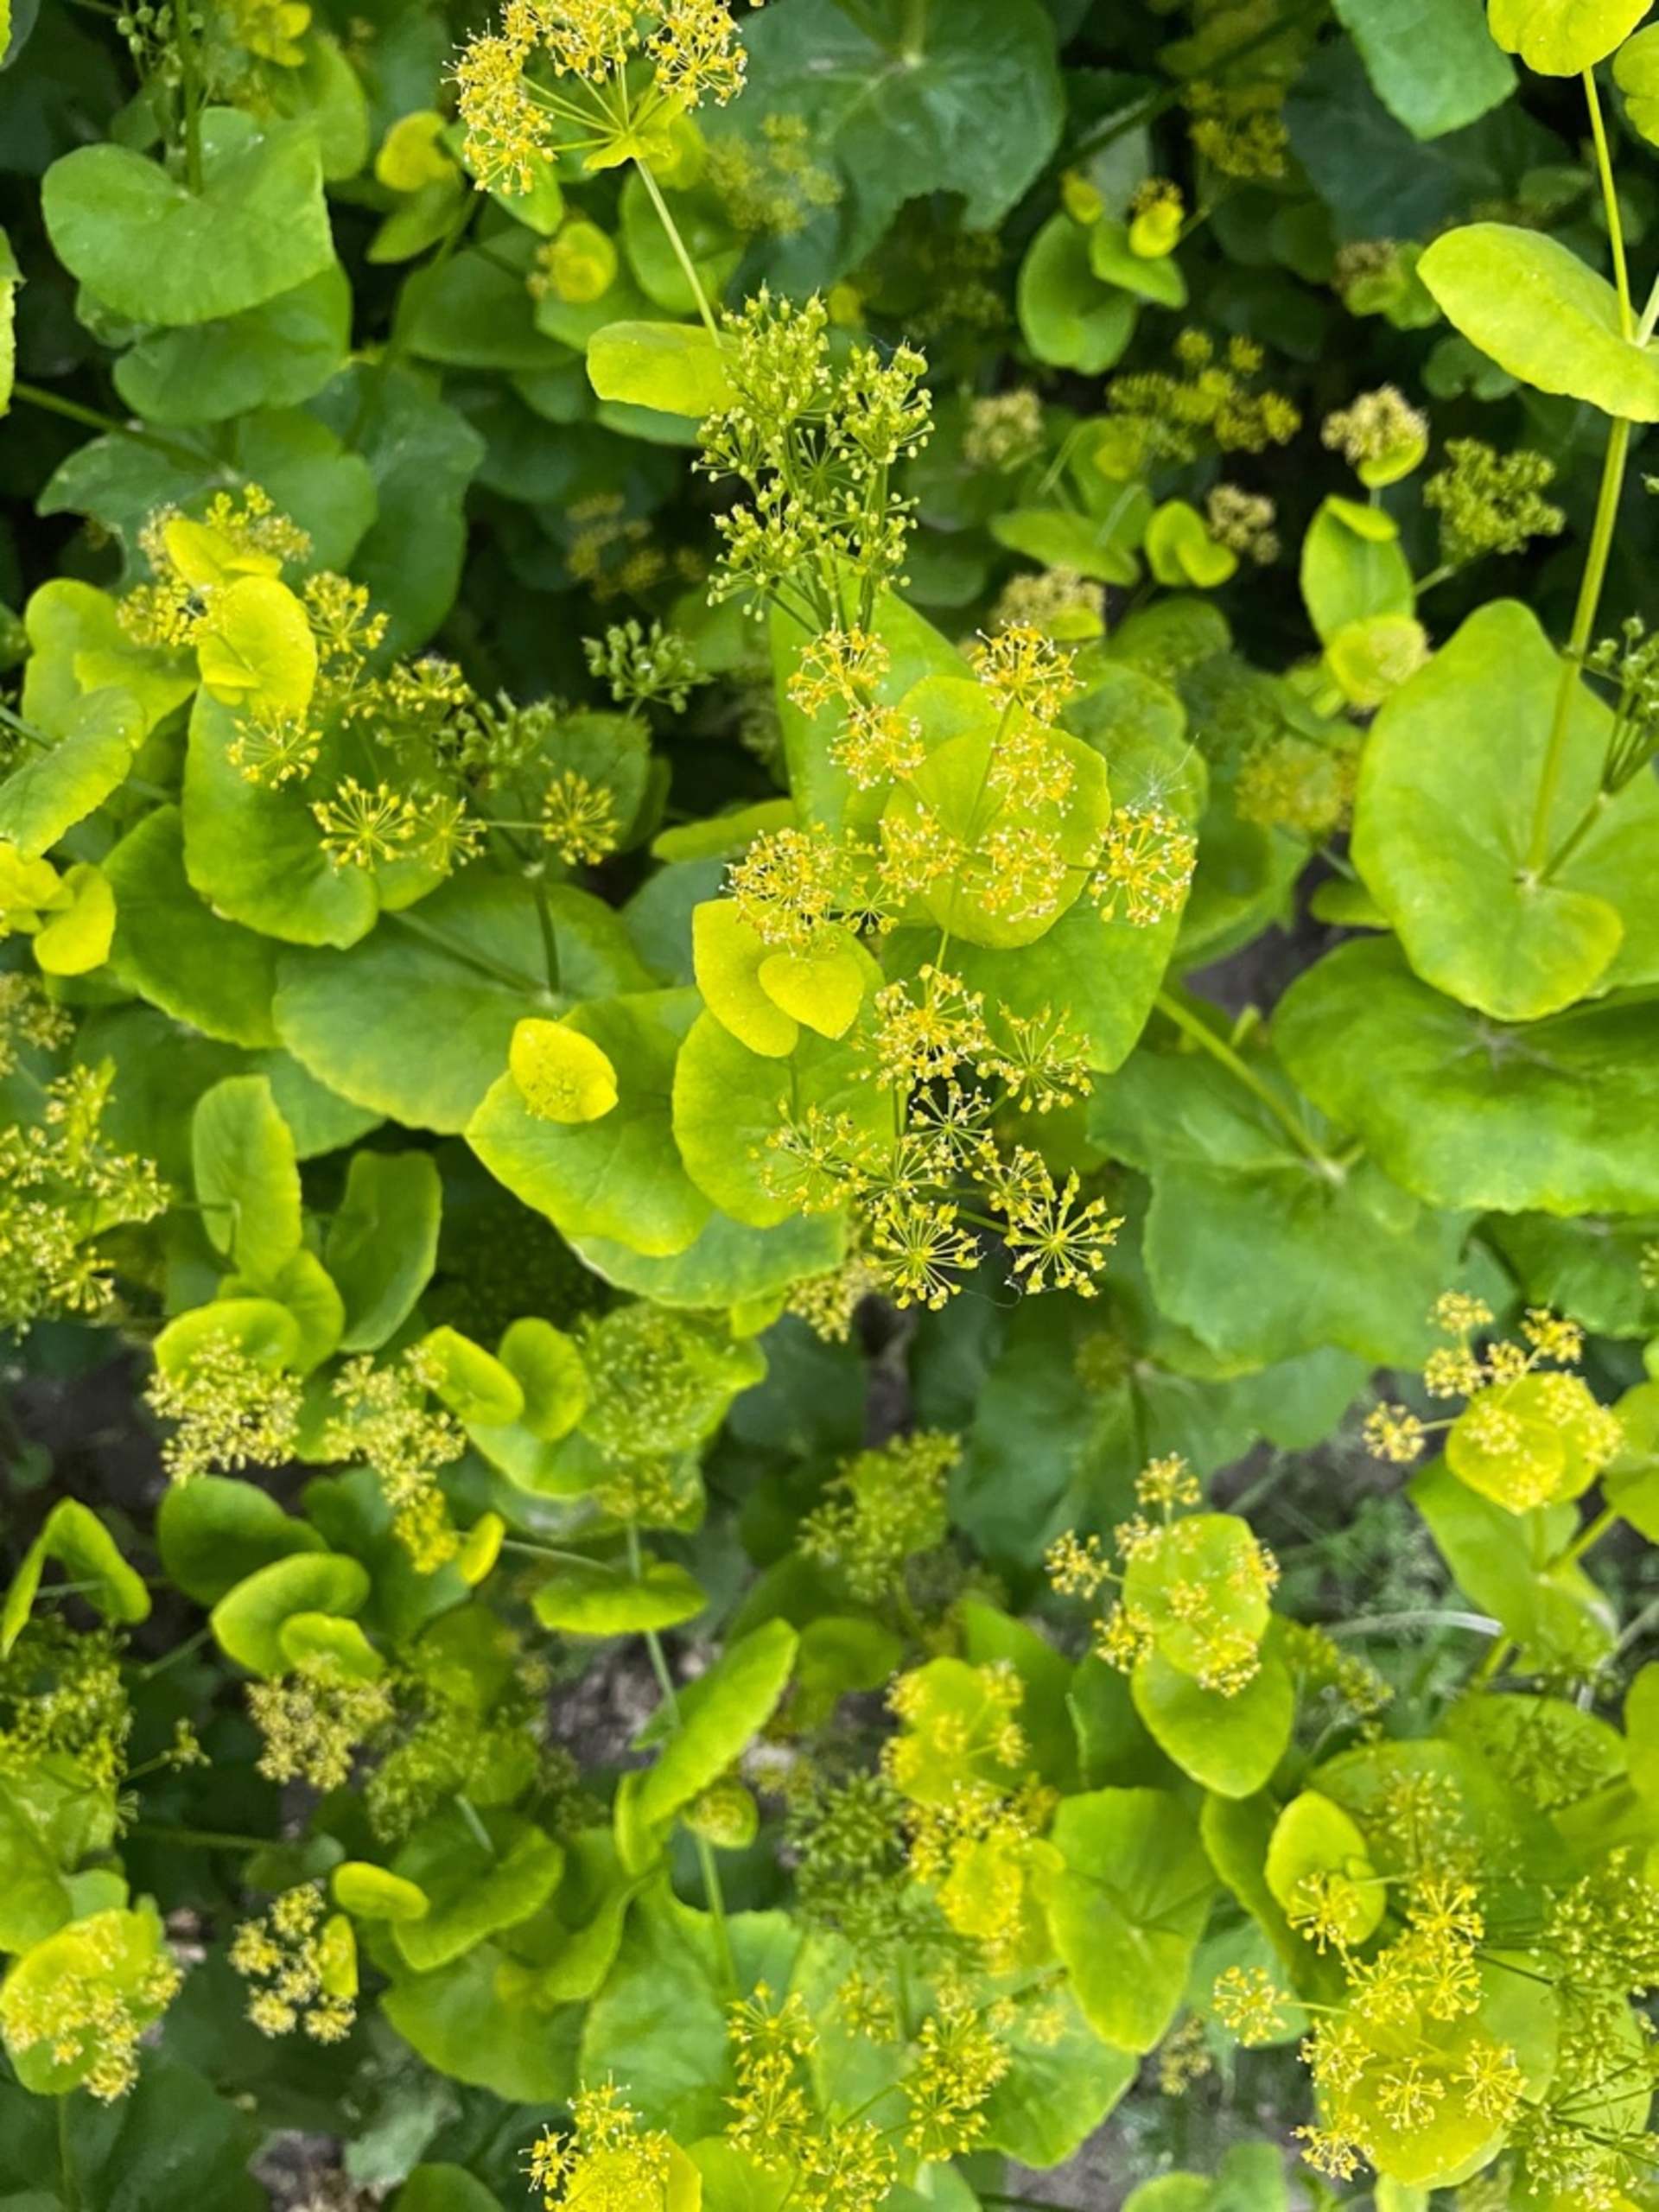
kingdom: Plantae
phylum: Tracheophyta
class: Magnoliopsida
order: Apiales
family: Apiaceae
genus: Smyrnium
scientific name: Smyrnium perfoliatum
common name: Lundgylden
